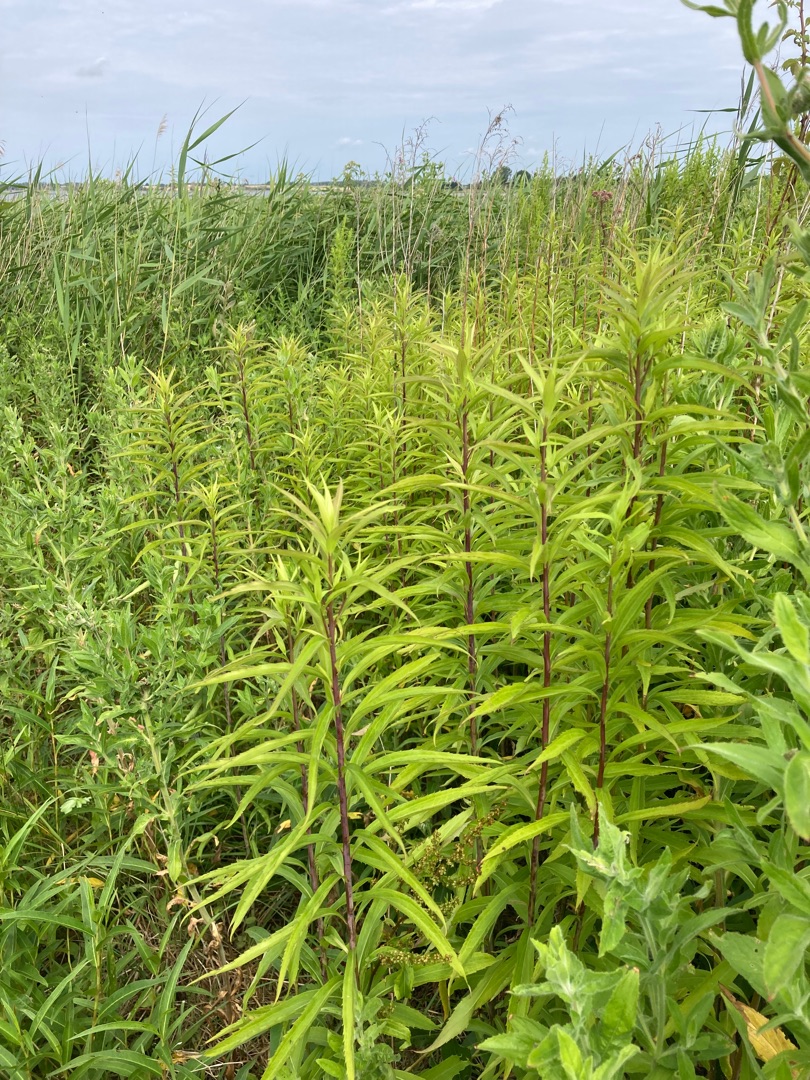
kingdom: Plantae
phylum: Tracheophyta
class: Magnoliopsida
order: Asterales
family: Asteraceae
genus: Solidago
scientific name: Solidago gigantea
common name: Sildig gyldenris
